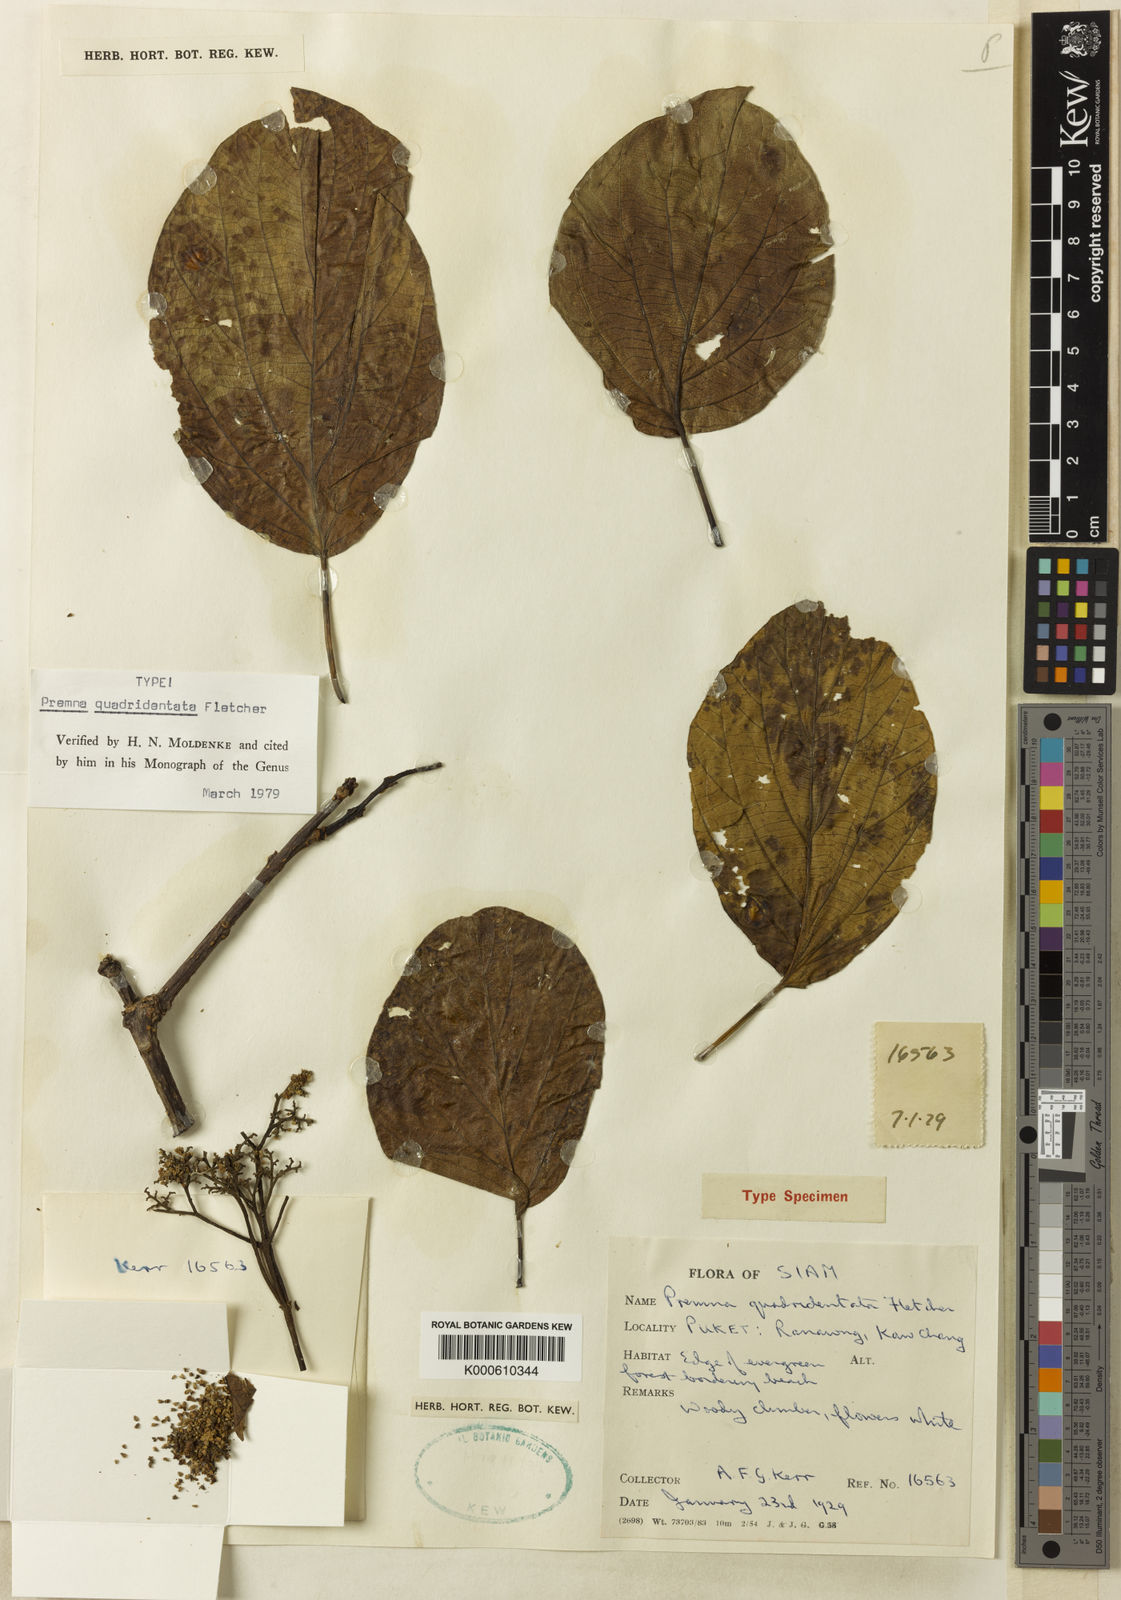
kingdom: Plantae
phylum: Tracheophyta
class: Magnoliopsida
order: Lamiales
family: Lamiaceae
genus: Premna
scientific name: Premna trichostoma
